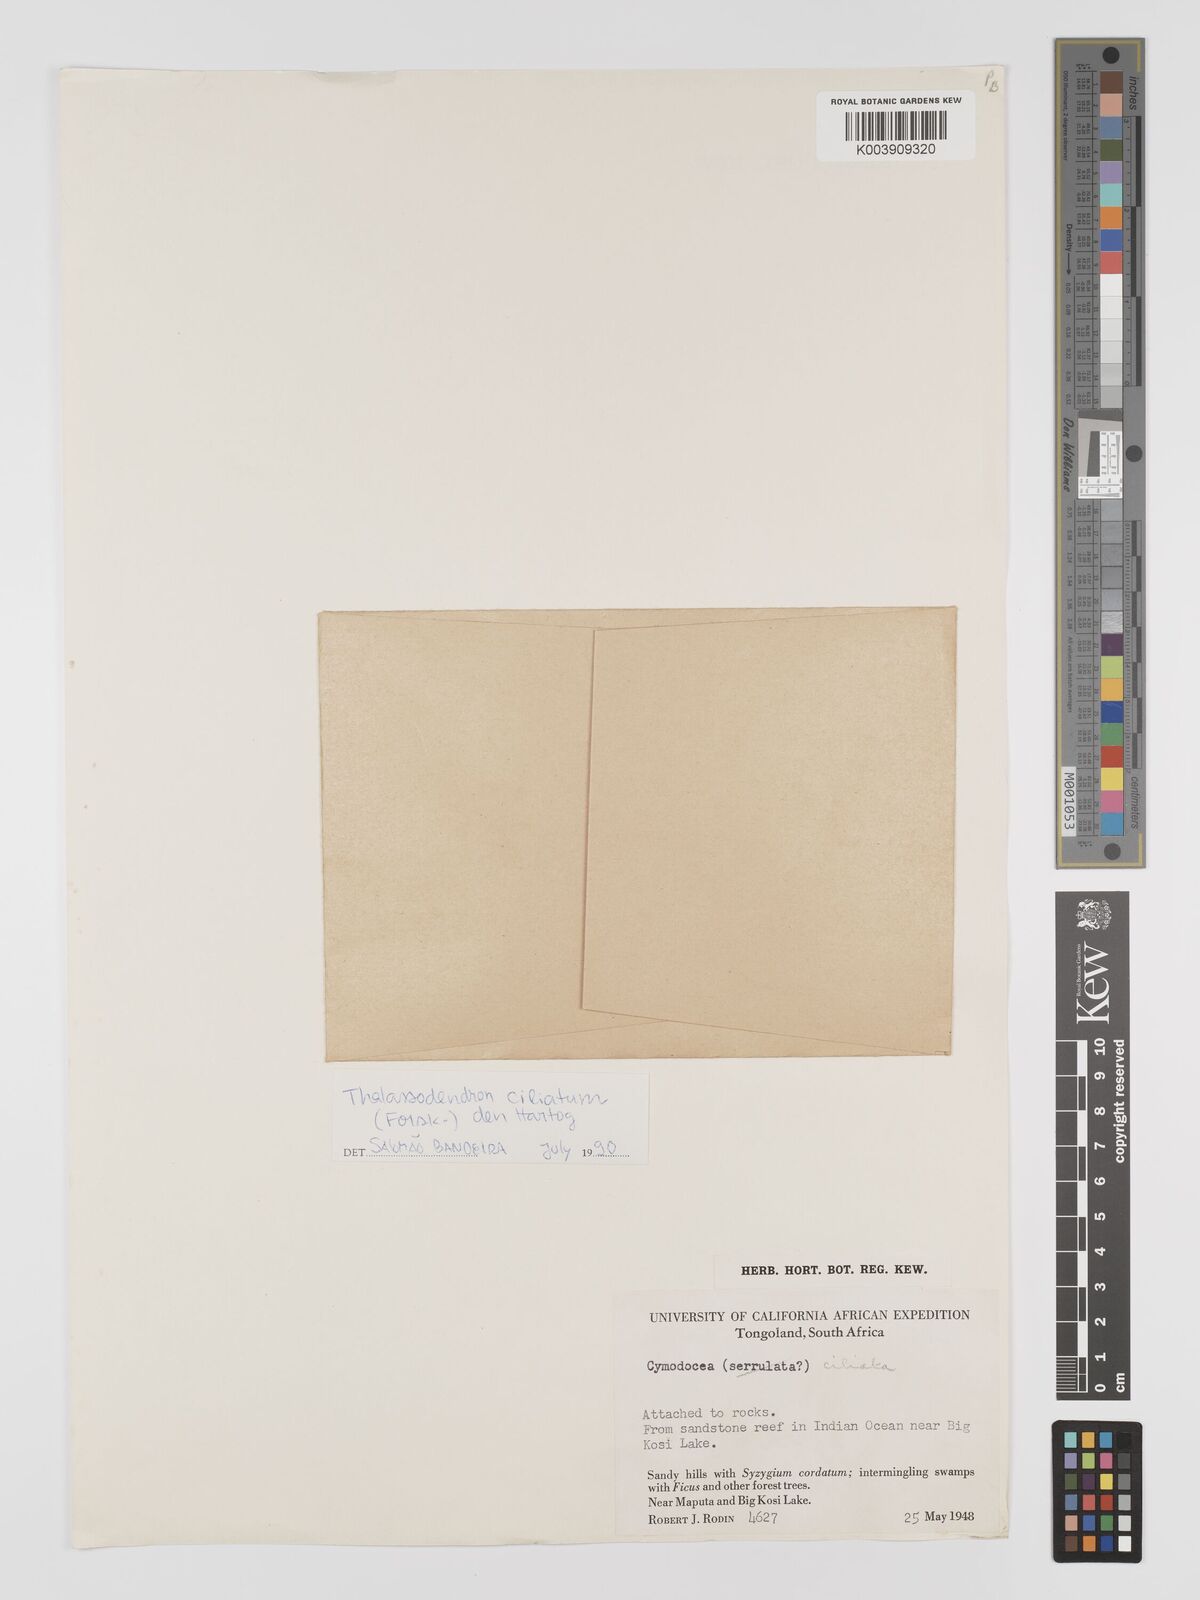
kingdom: Plantae
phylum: Tracheophyta
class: Liliopsida
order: Alismatales
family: Cymodoceaceae
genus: Thalassodendron
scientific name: Thalassodendron ciliatum
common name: Species code: tc
